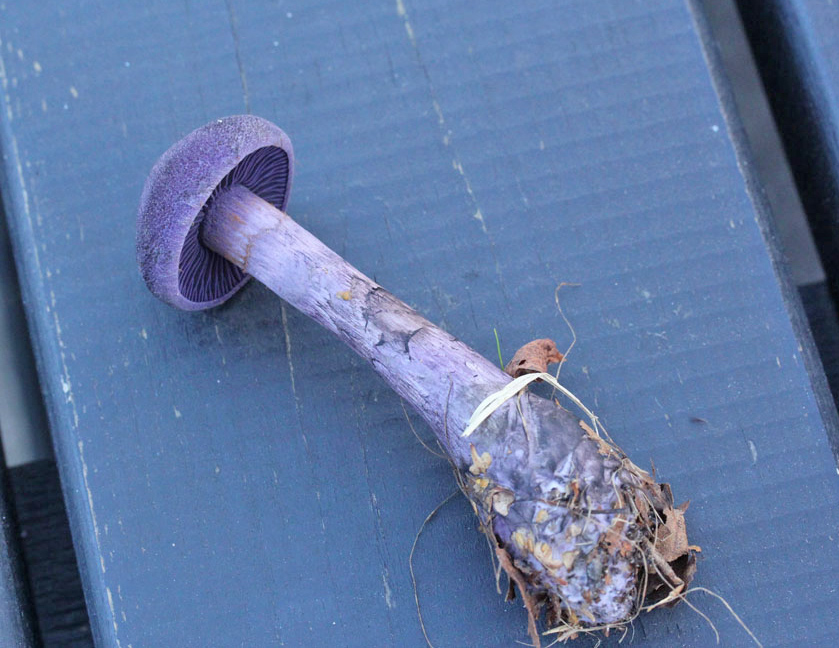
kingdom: Fungi
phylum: Basidiomycota
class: Agaricomycetes
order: Agaricales
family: Cortinariaceae
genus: Cortinarius
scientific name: Cortinarius violaceus
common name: mørkviolet slørhat
